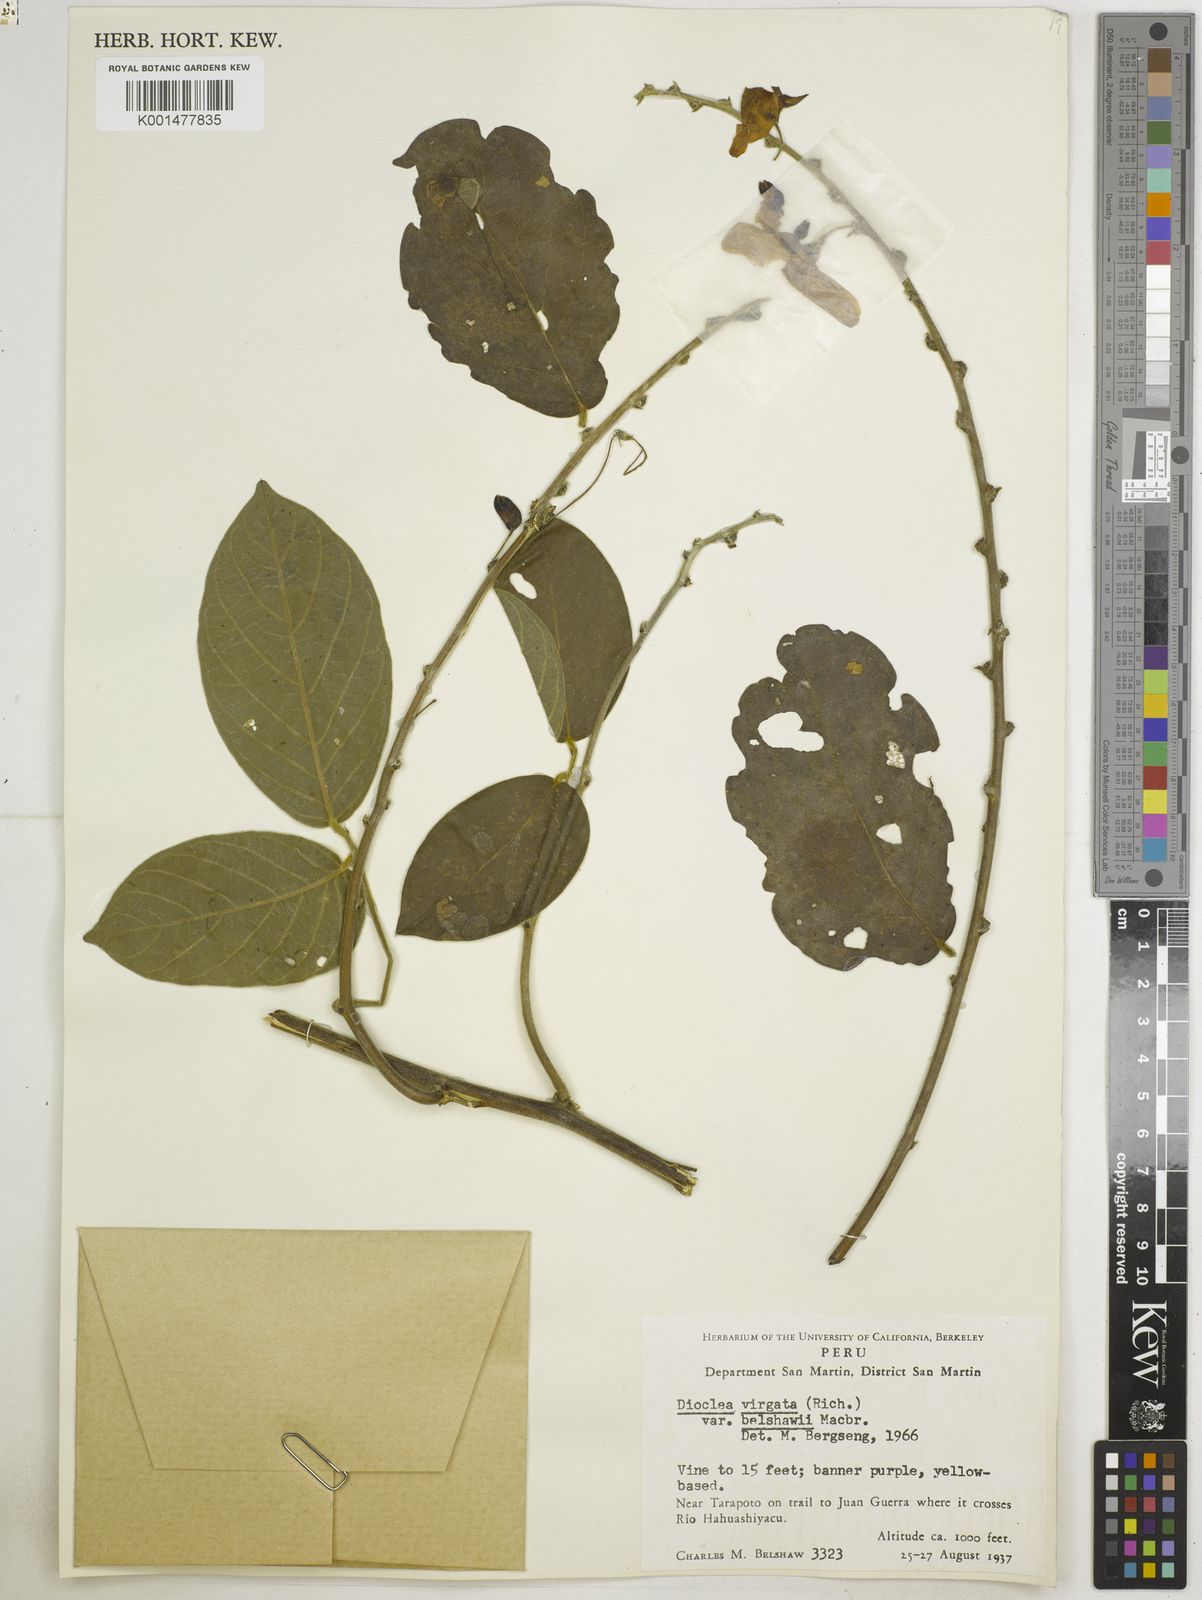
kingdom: Plantae
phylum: Tracheophyta
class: Magnoliopsida
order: Fabales
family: Fabaceae
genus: Dioclea
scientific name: Dioclea virgata
